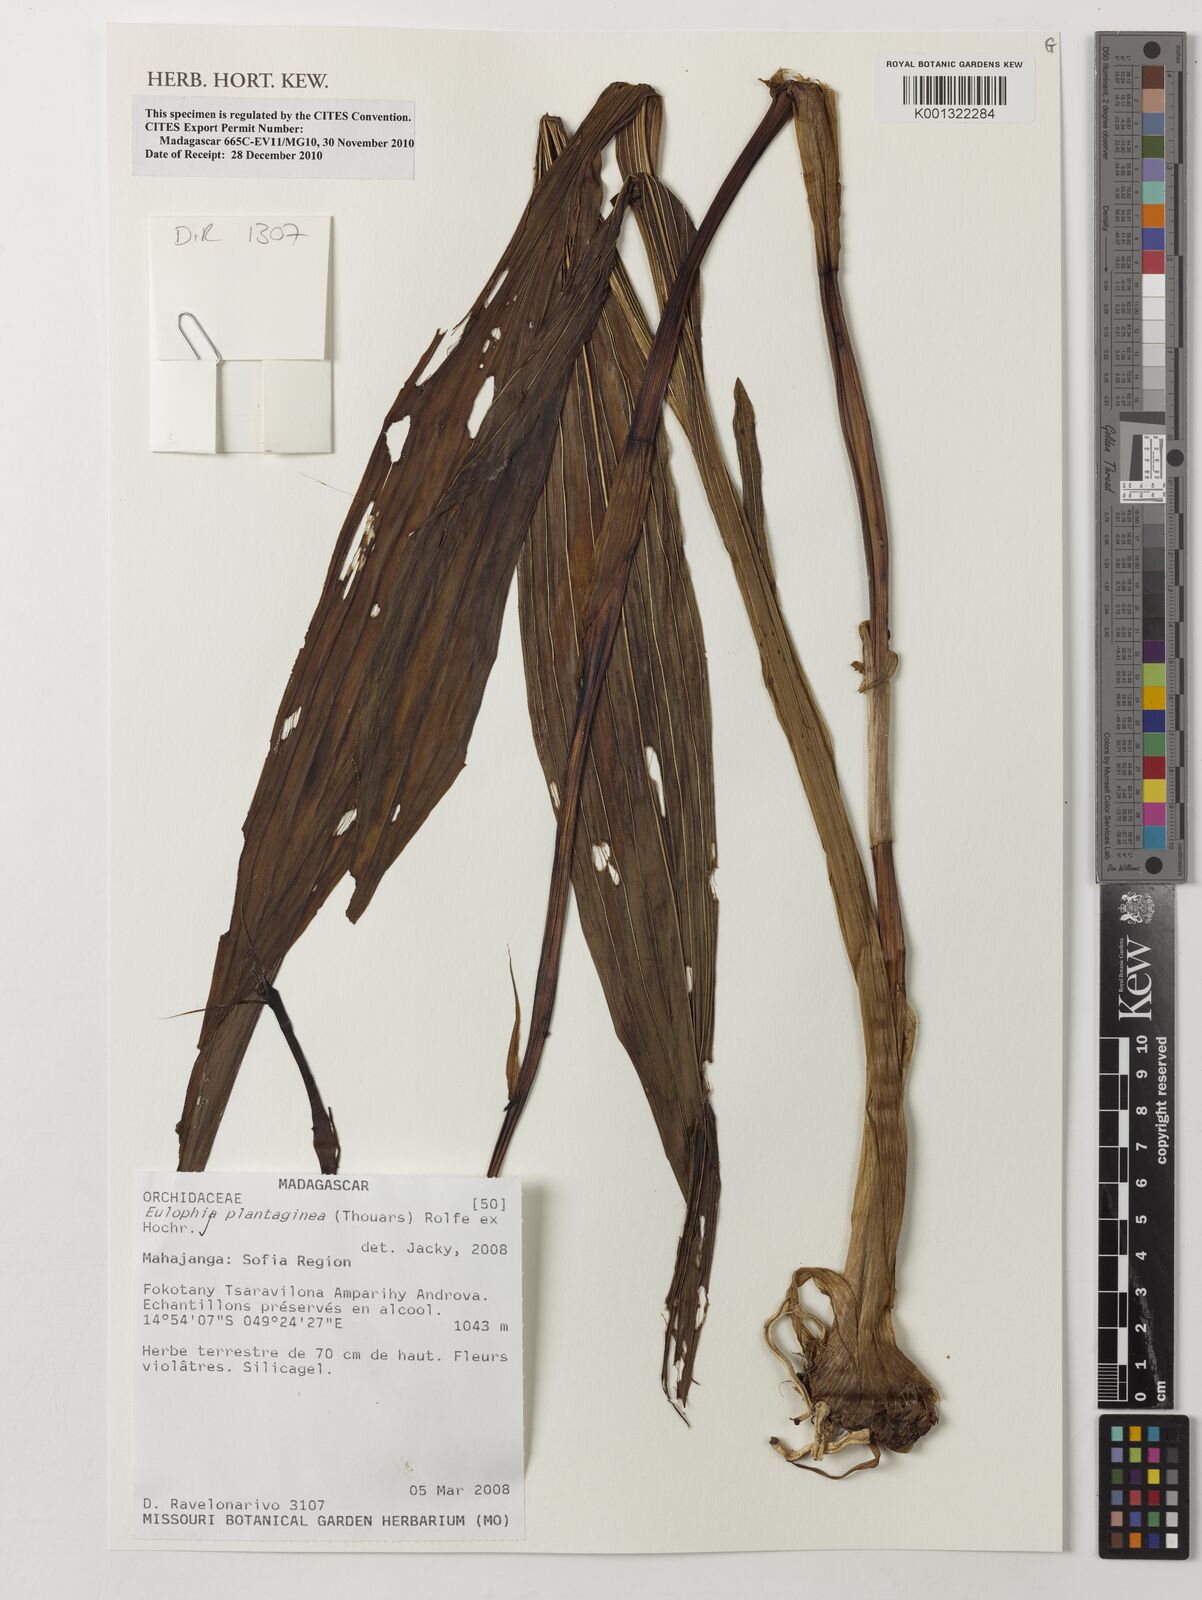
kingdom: Plantae
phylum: Tracheophyta
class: Liliopsida
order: Asparagales
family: Orchidaceae
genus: Eulophia
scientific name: Eulophia plantaginea
